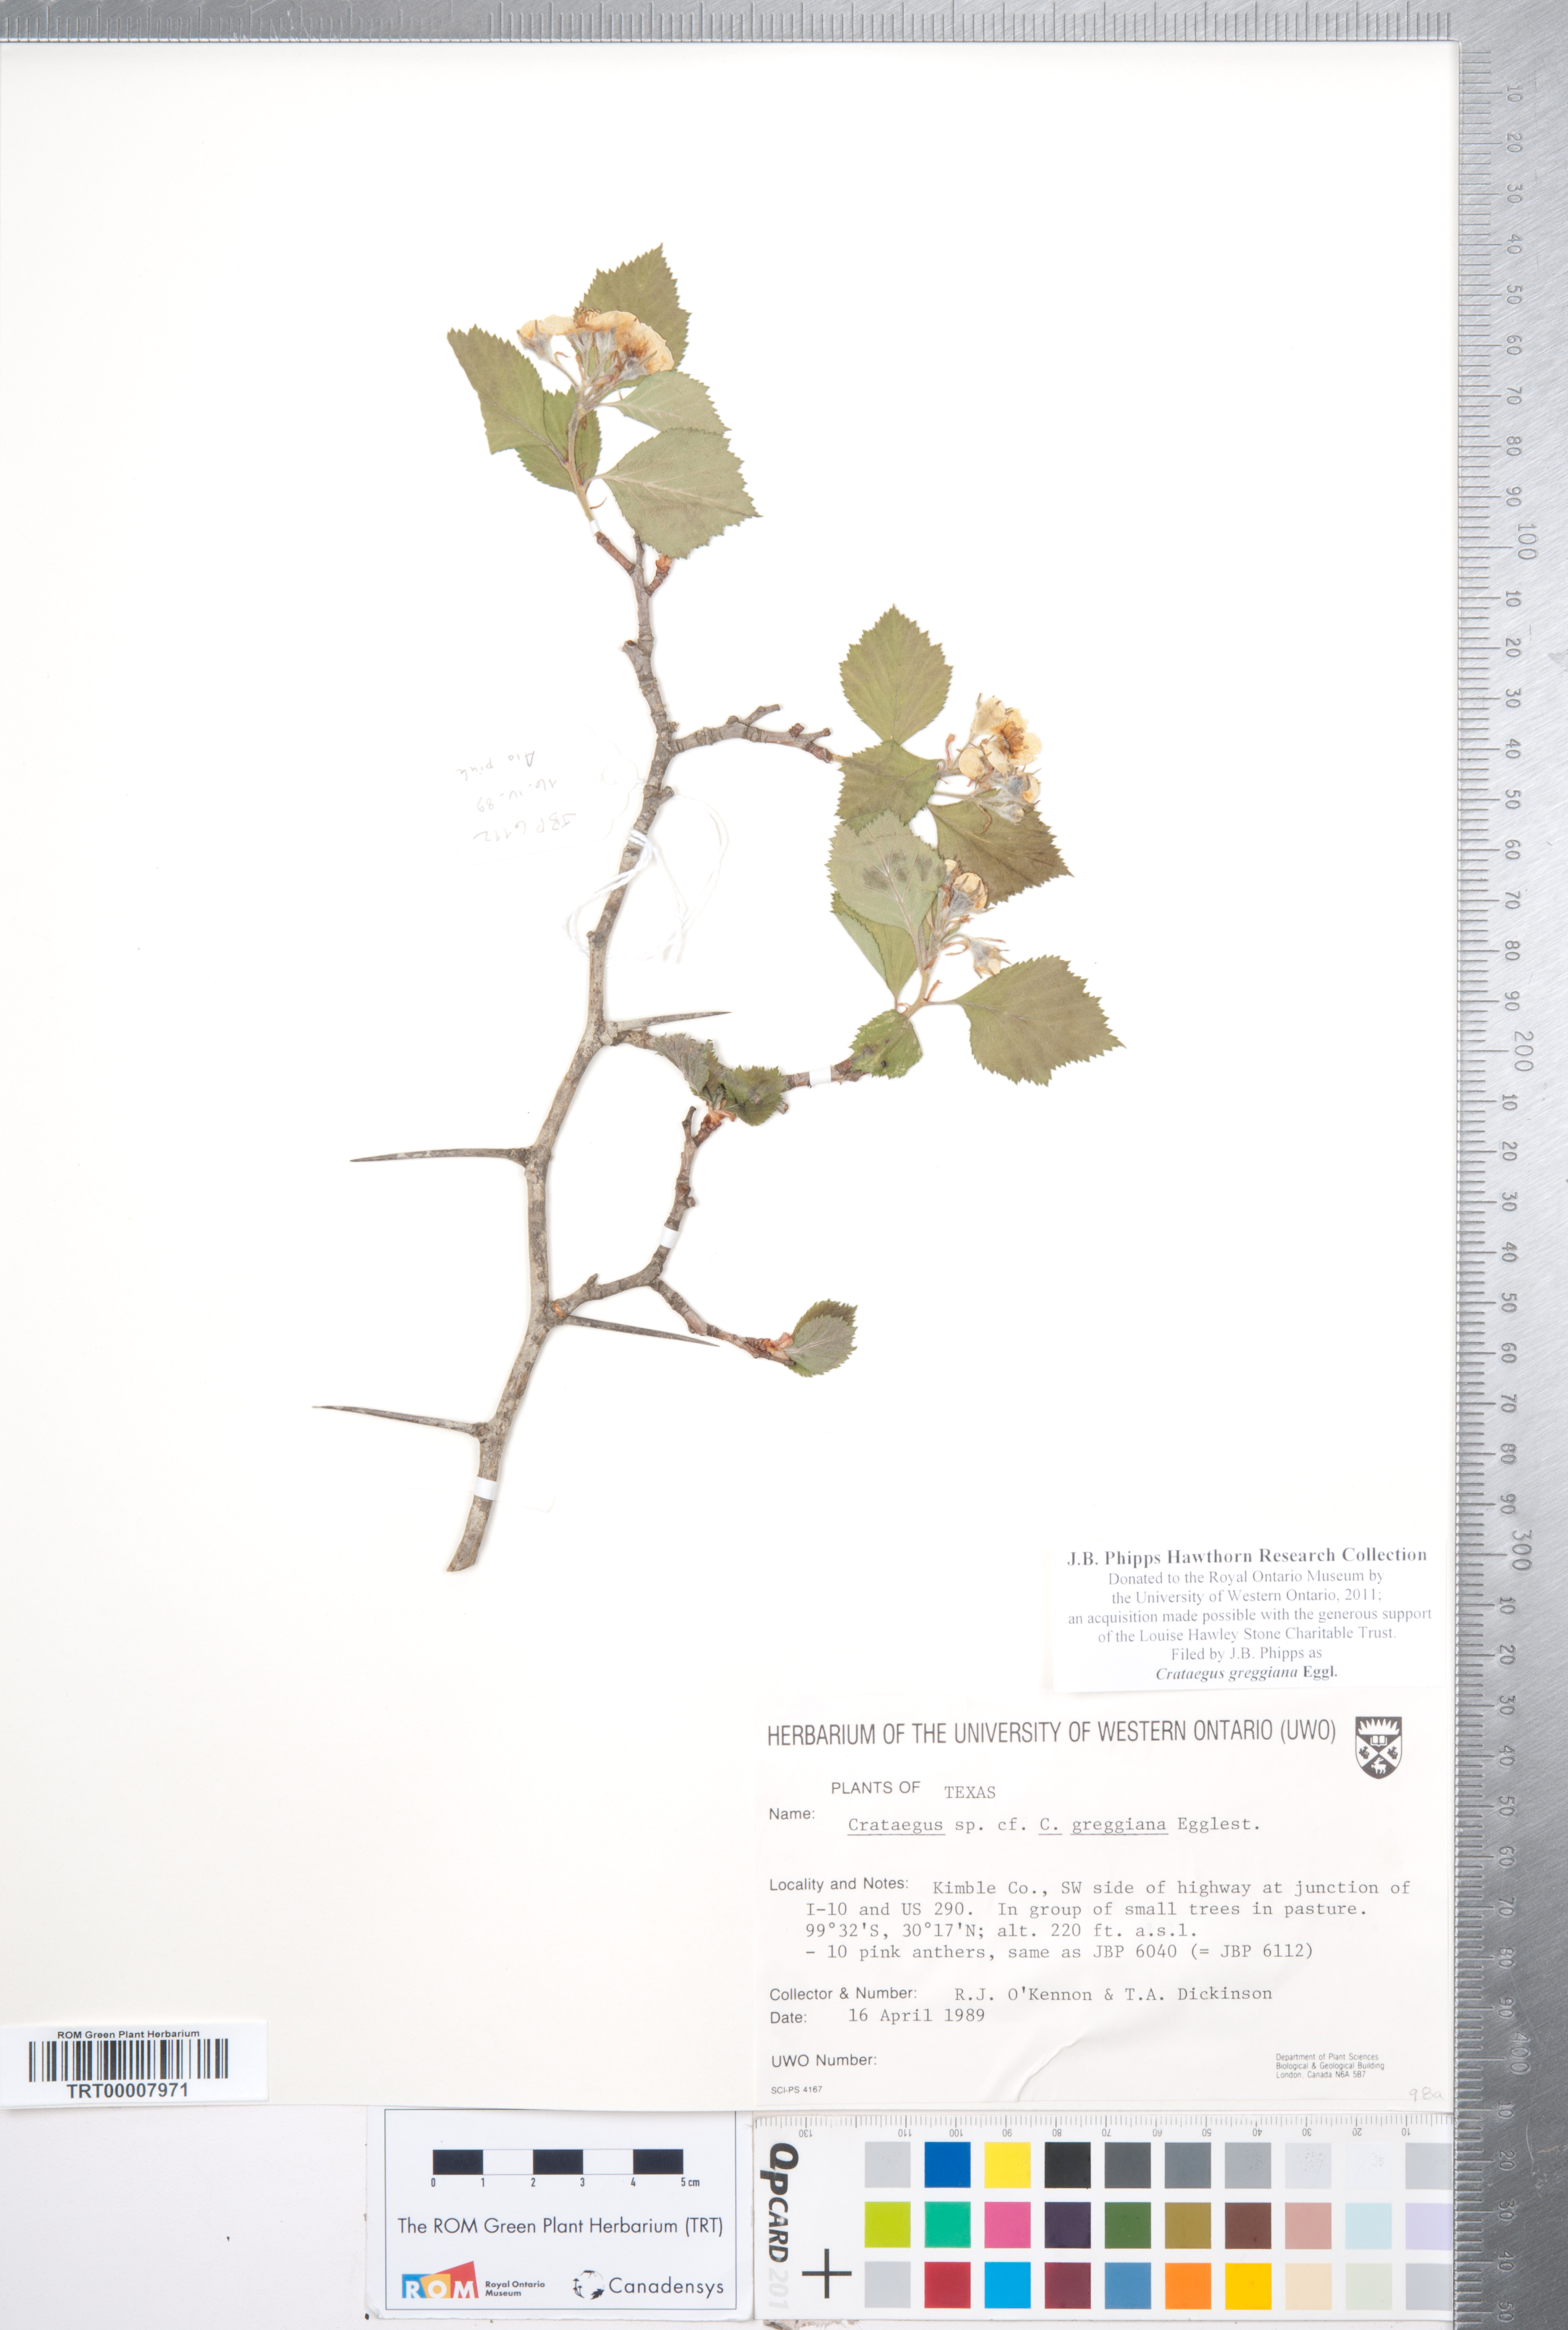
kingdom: Plantae
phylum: Tracheophyta
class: Magnoliopsida
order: Rosales
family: Rosaceae
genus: Crataegus
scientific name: Crataegus greggiana
